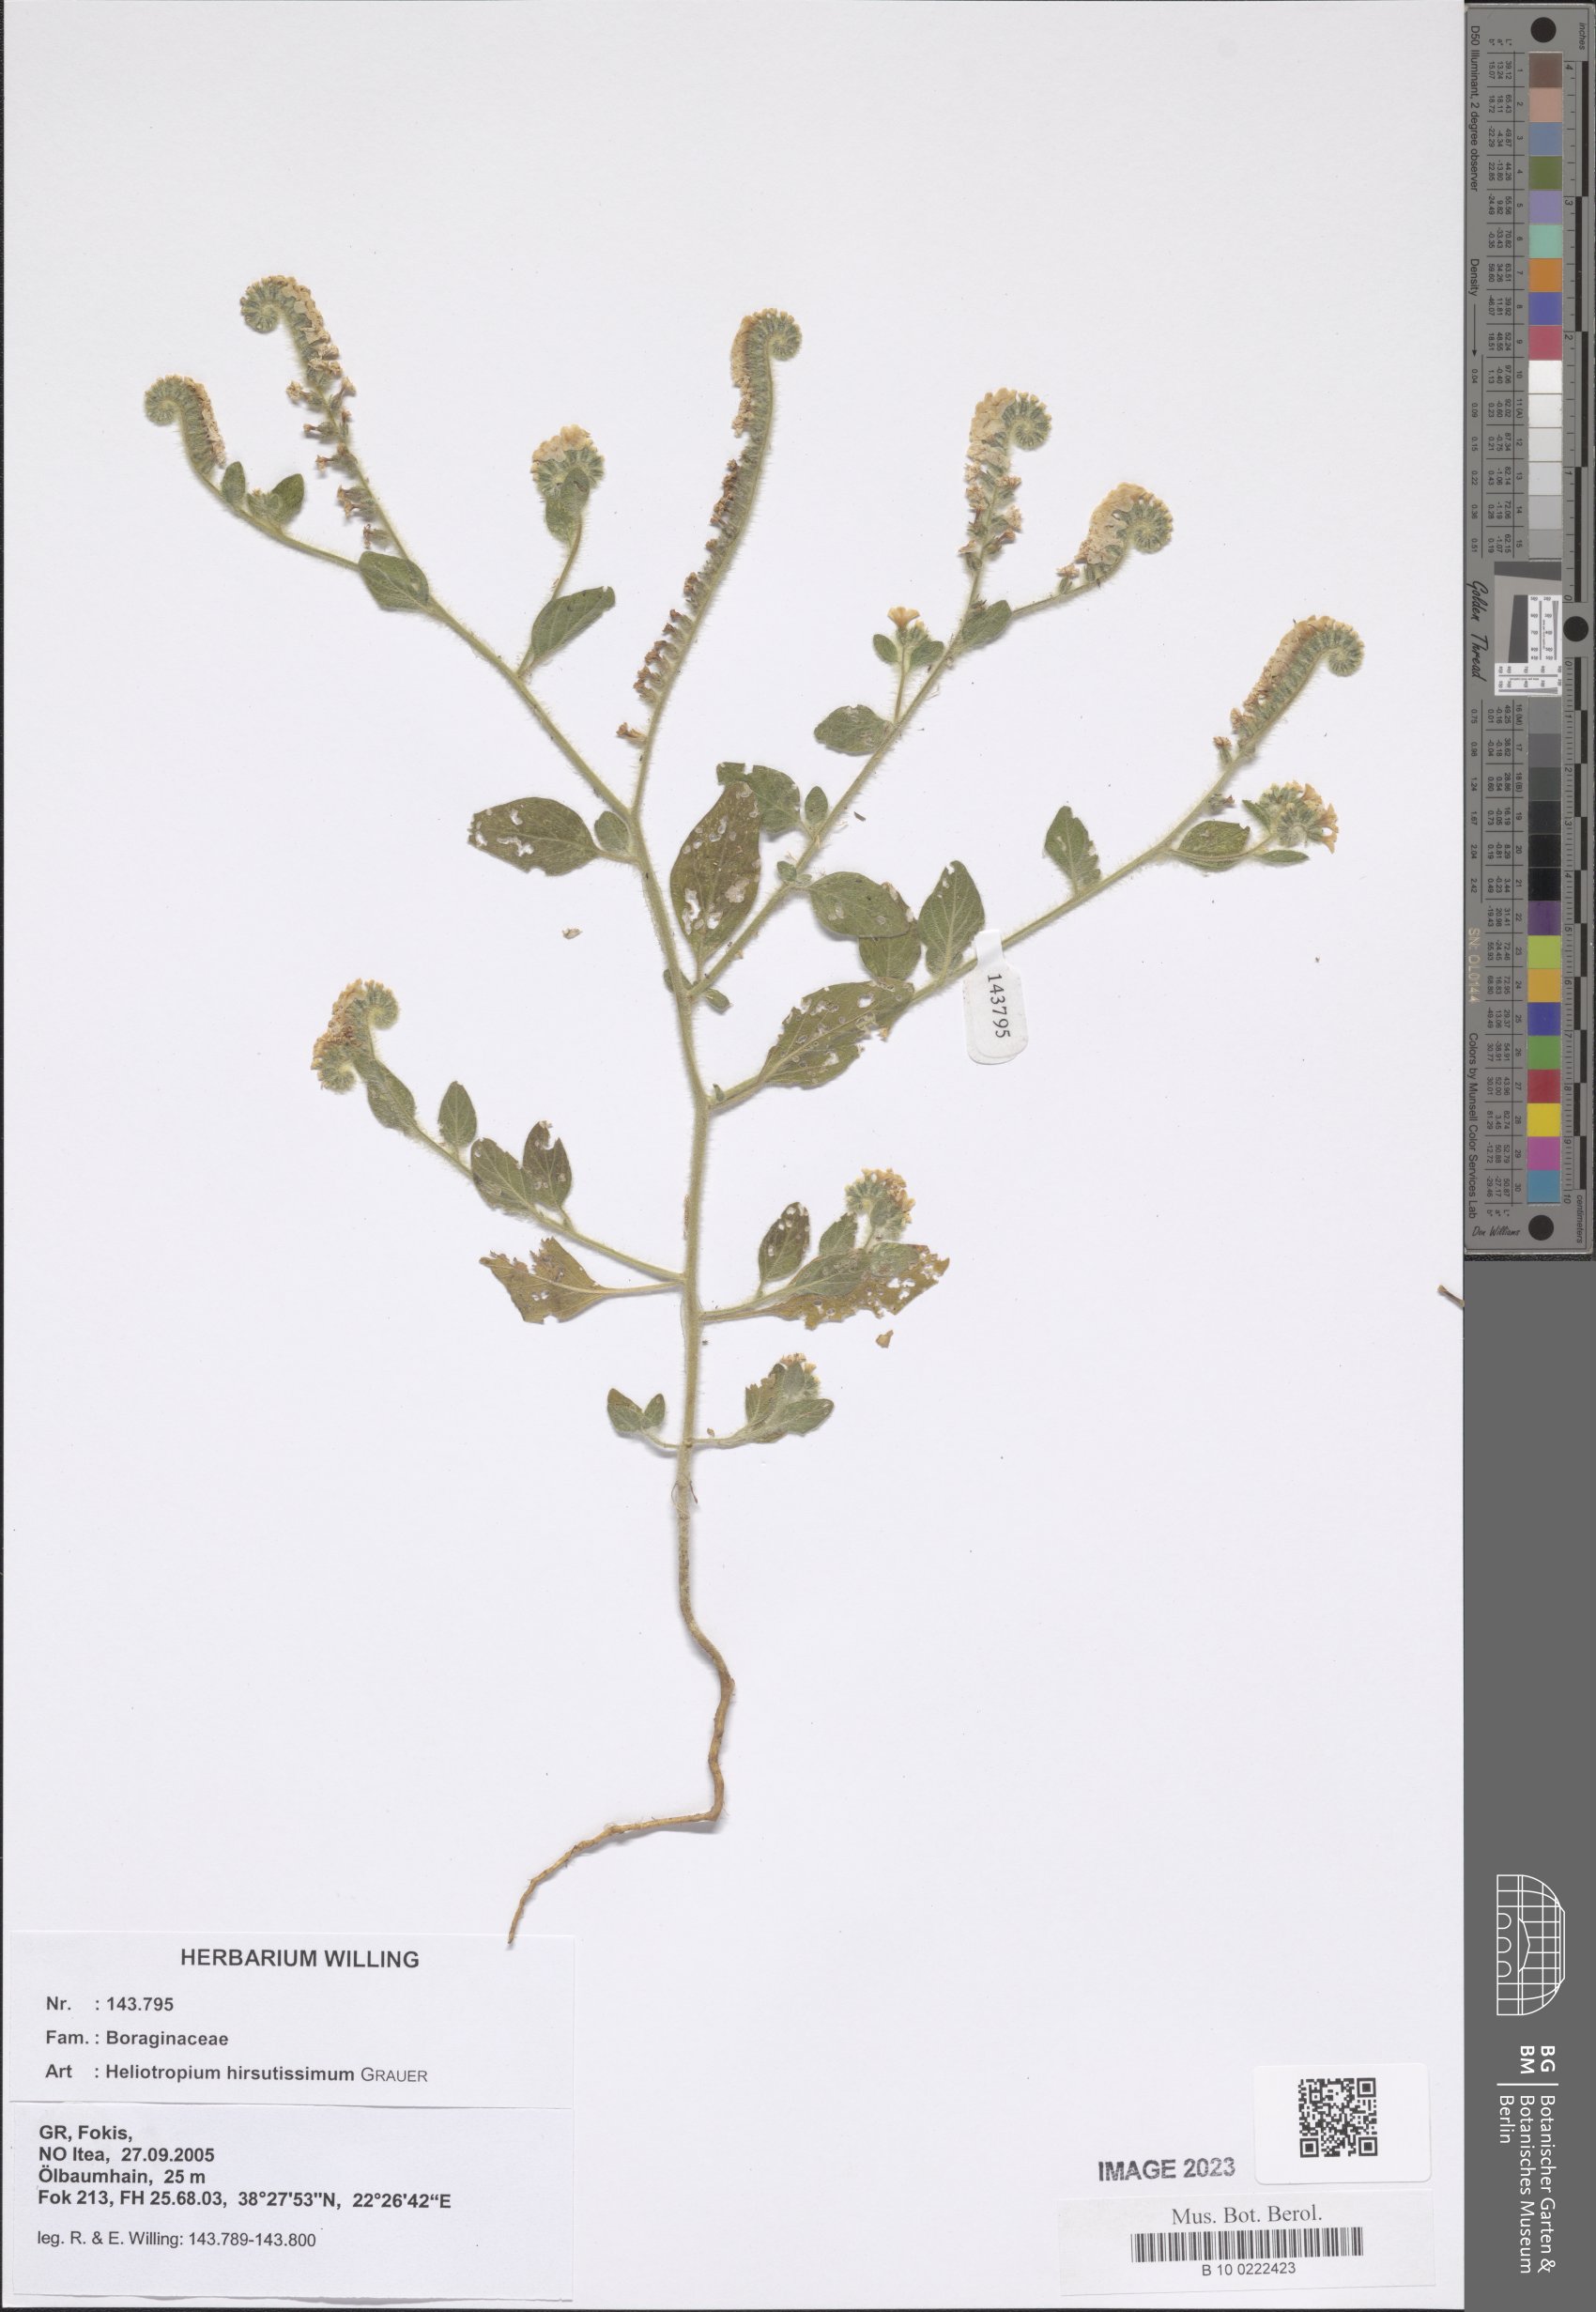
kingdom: Plantae
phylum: Tracheophyta
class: Magnoliopsida
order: Boraginales
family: Heliotropiaceae
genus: Heliotropium
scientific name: Heliotropium hirsutissimum
